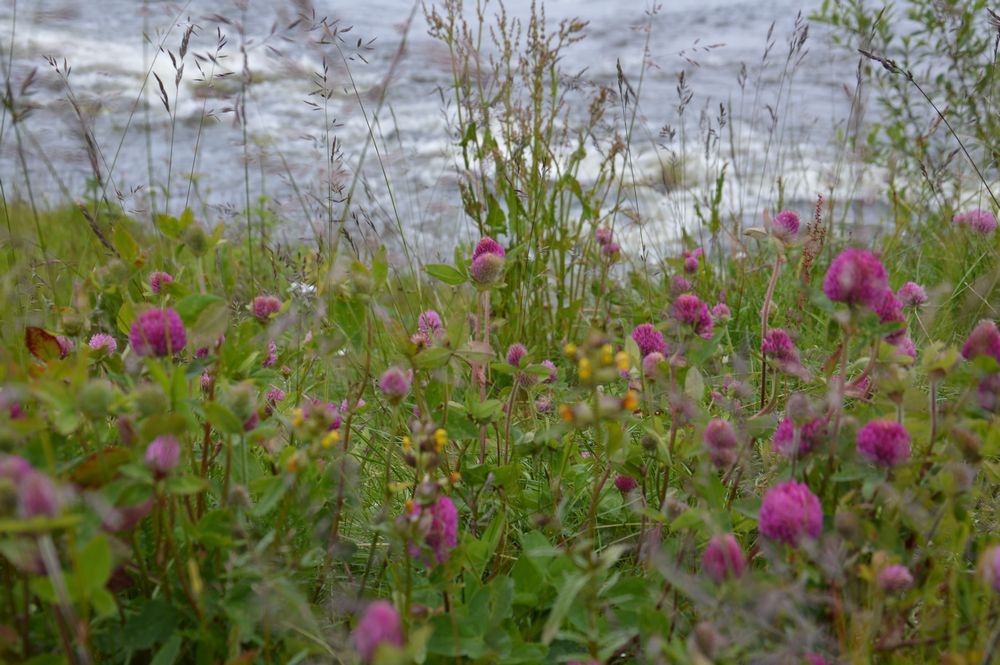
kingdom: Plantae
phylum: Tracheophyta
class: Magnoliopsida
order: Fabales
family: Fabaceae
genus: Trifolium
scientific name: Trifolium medium
